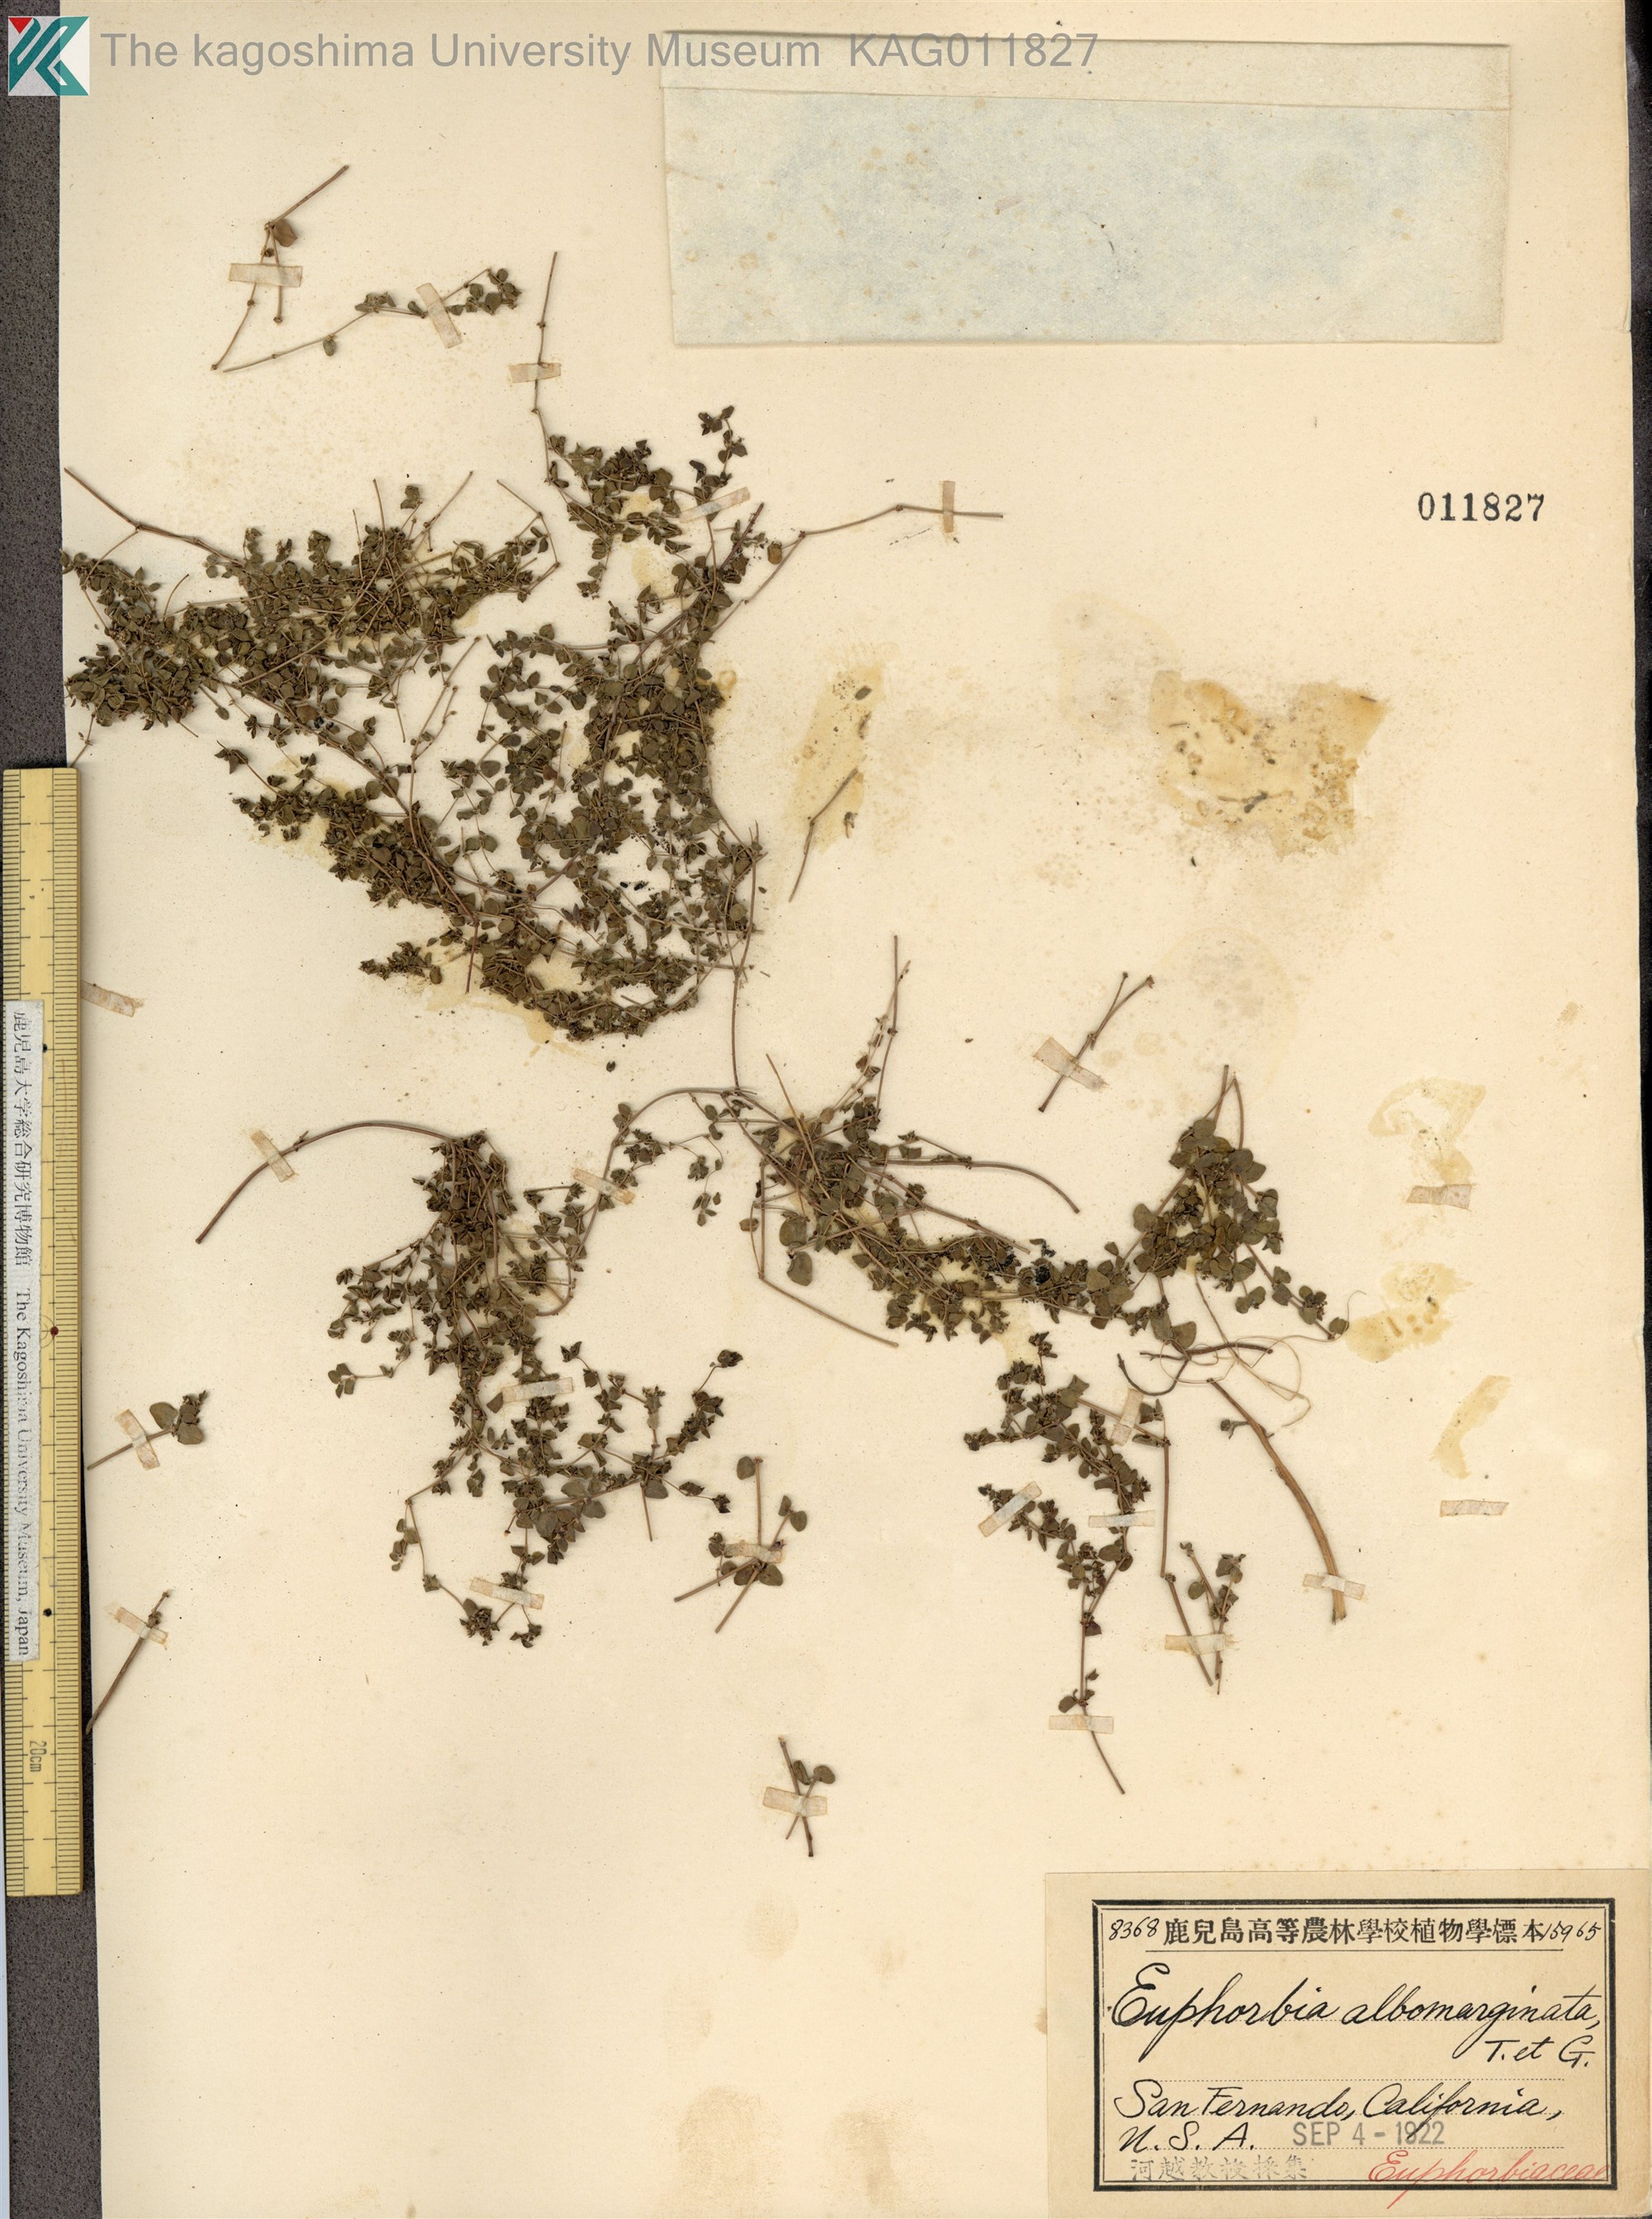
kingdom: Plantae
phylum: Tracheophyta
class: Magnoliopsida
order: Malpighiales
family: Euphorbiaceae
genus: Euphorbia
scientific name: Euphorbia albomarginata
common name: Whitemargin sandmat
